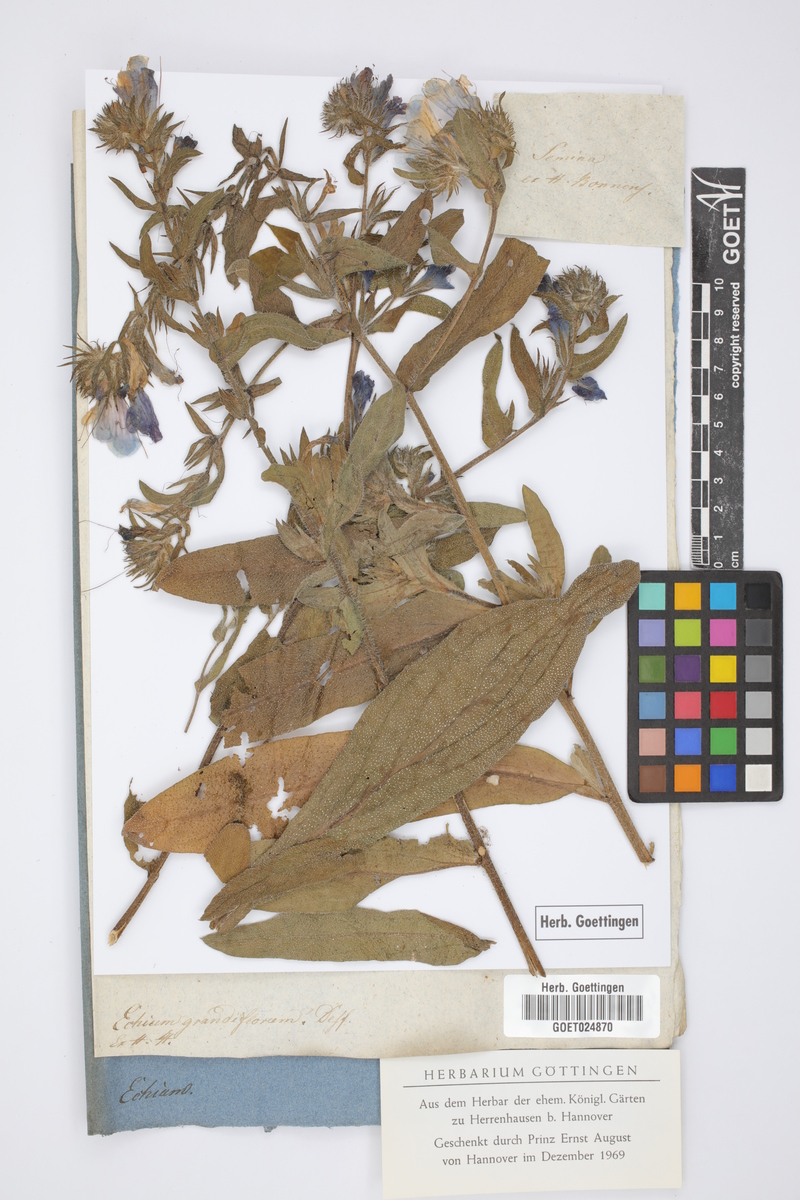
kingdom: Plantae
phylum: Tracheophyta
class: Magnoliopsida
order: Boraginales
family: Boraginaceae
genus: Echium
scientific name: Echium creticum
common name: Cretan viper's bugloss
